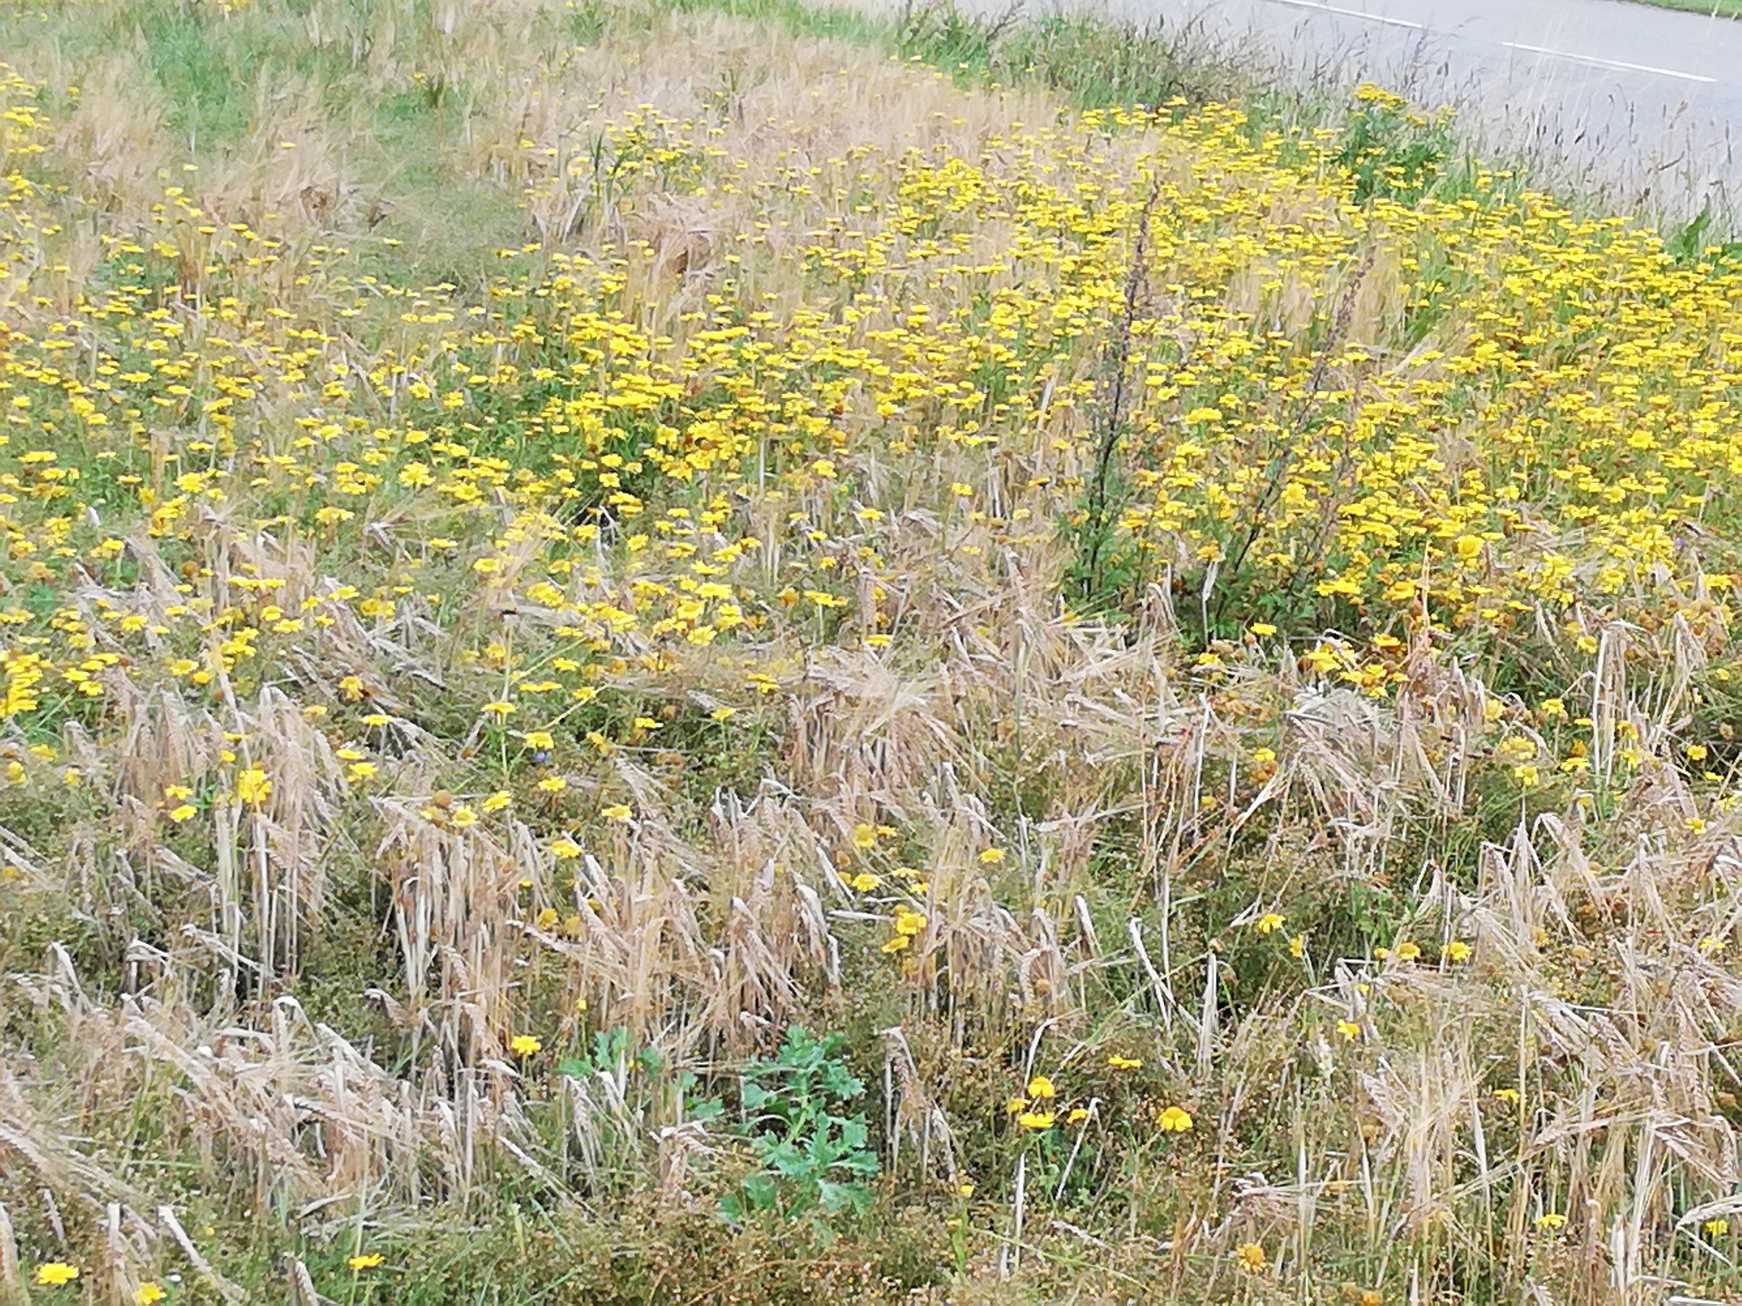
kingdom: Plantae
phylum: Tracheophyta
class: Magnoliopsida
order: Asterales
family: Asteraceae
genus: Glebionis
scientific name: Glebionis segetum
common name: Gul okseøje
